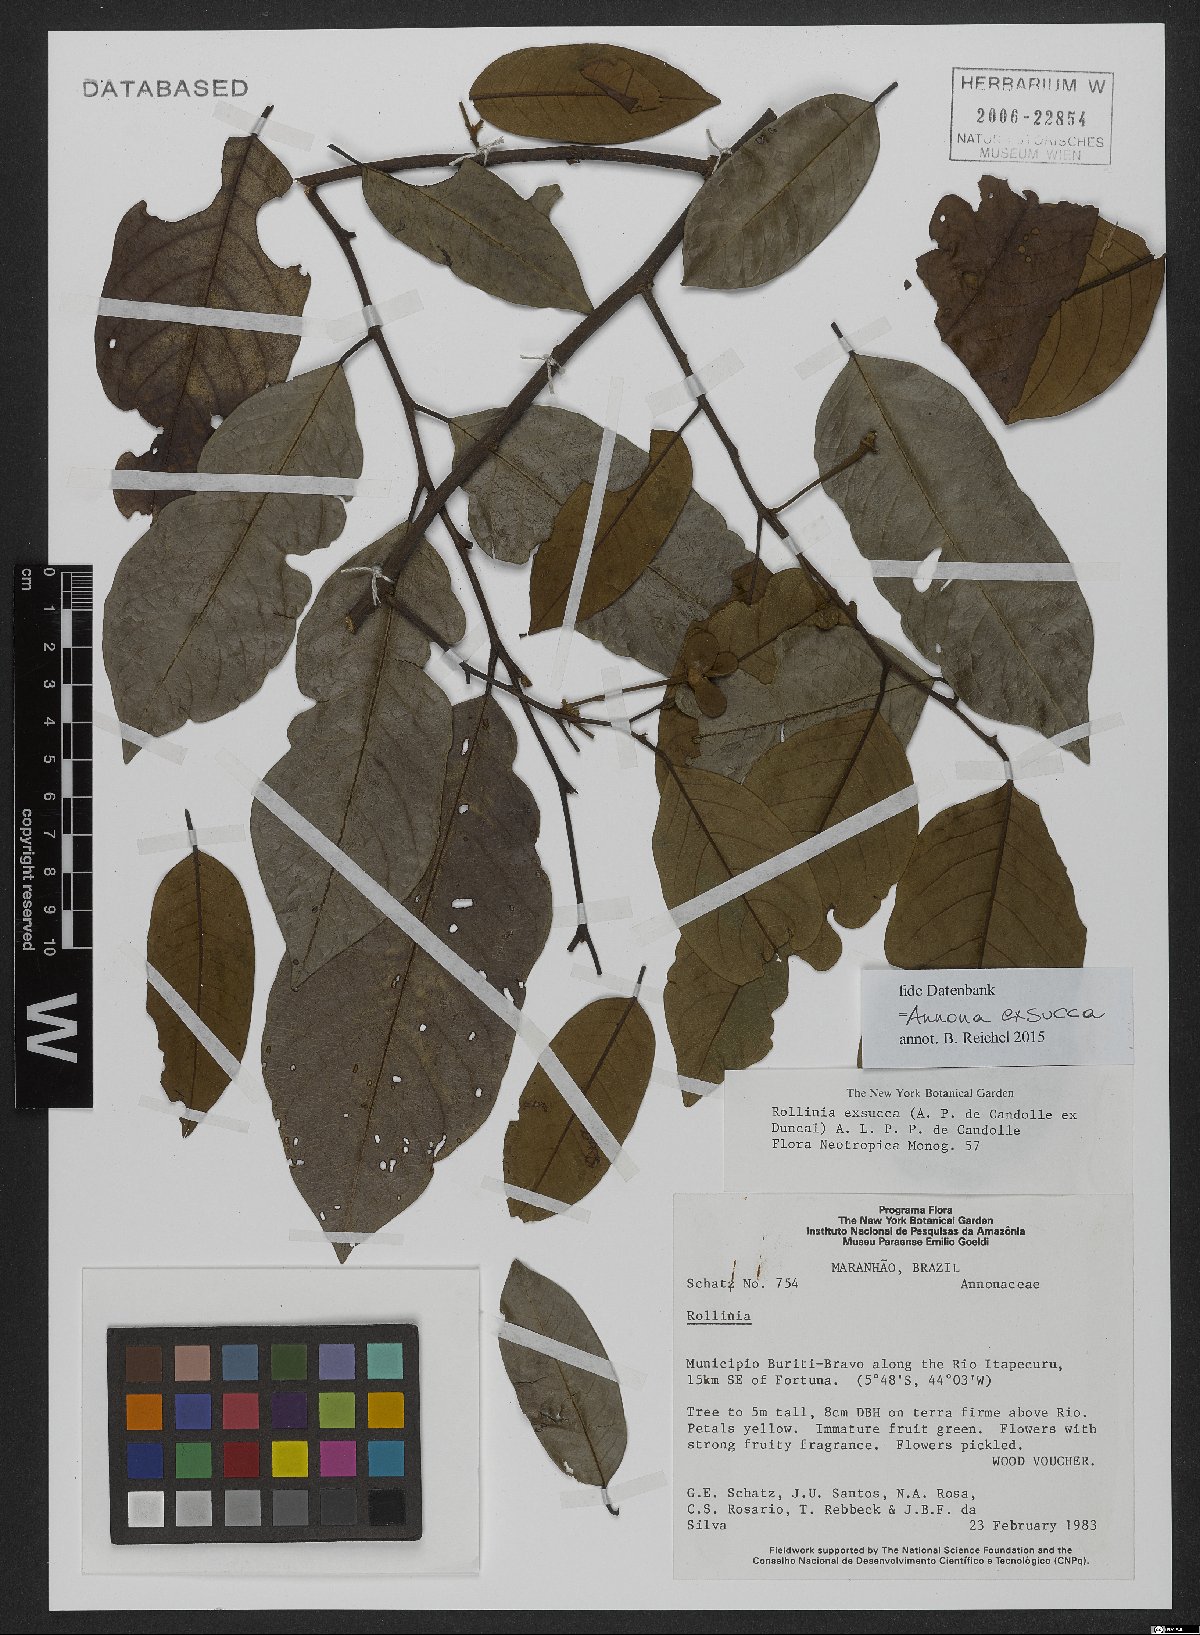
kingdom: Plantae
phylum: Tracheophyta
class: Magnoliopsida
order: Magnoliales
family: Annonaceae
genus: Annona
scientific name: Annona exsucca
